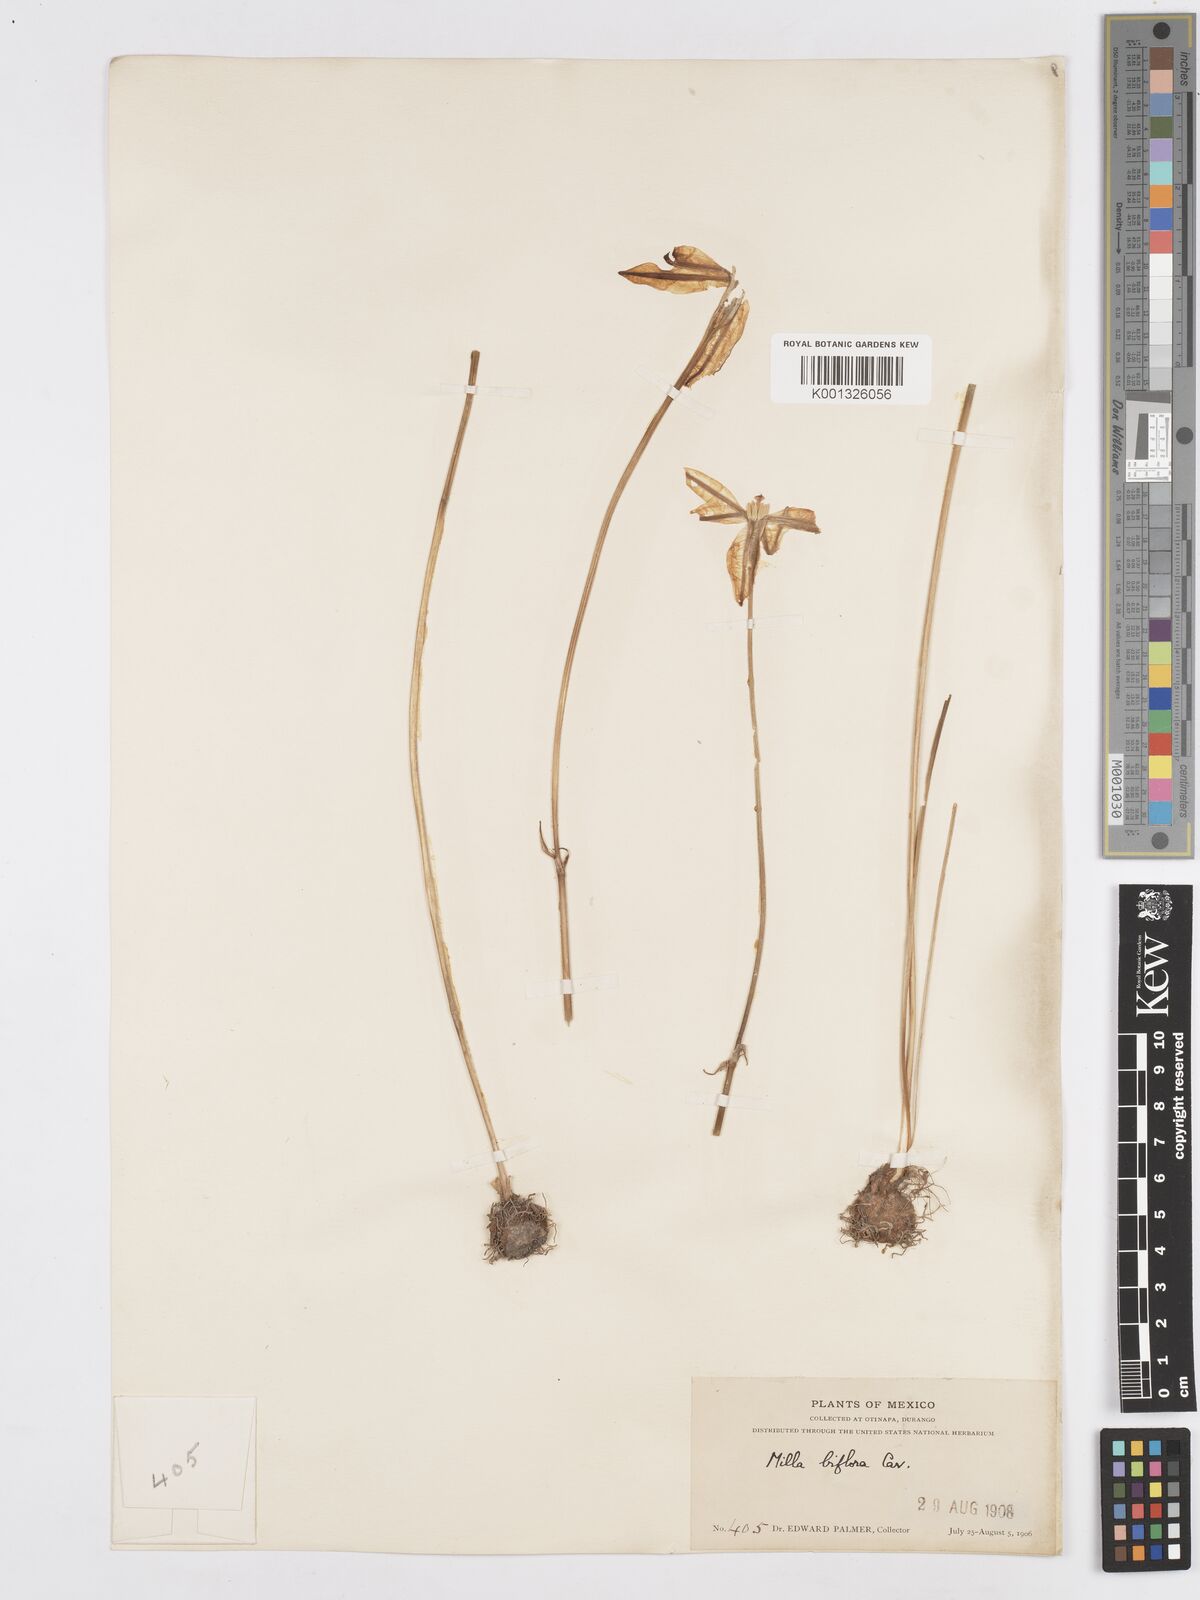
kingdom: Plantae
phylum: Tracheophyta
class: Liliopsida
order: Asparagales
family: Asparagaceae
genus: Milla
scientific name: Milla biflora
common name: Mexican-star
